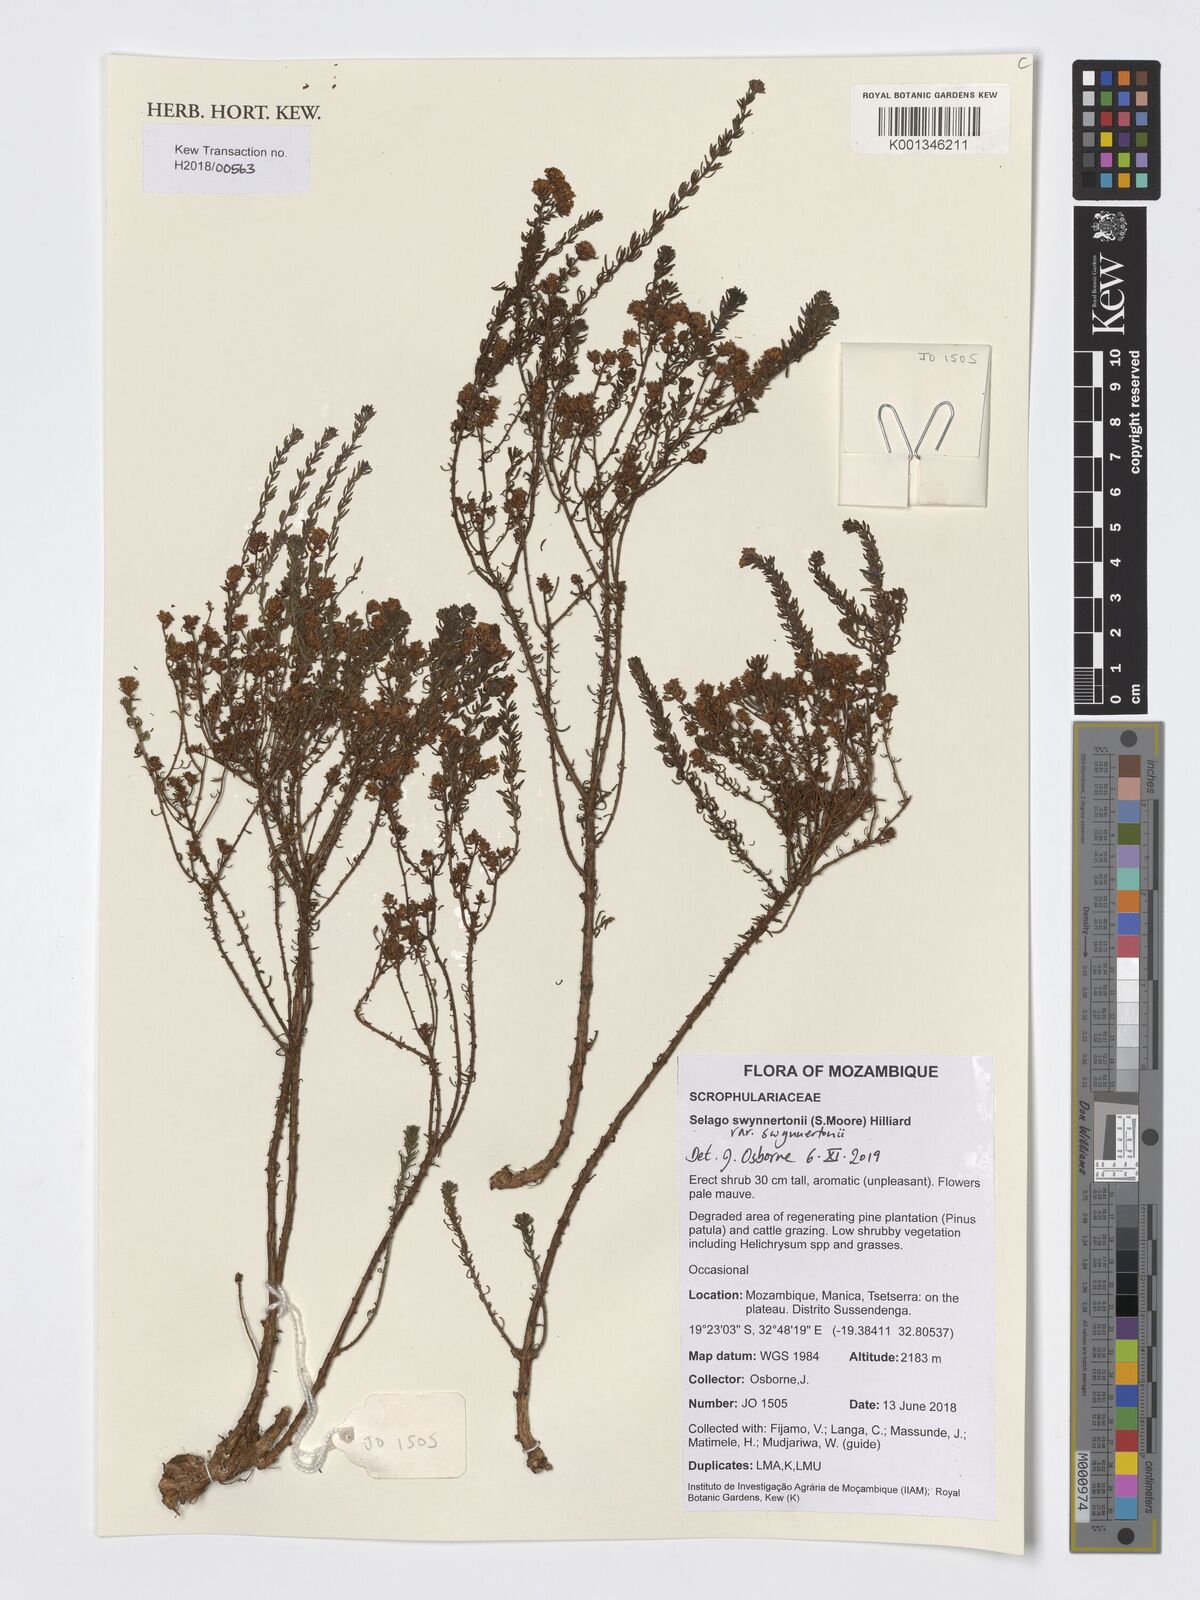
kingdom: Plantae
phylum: Tracheophyta
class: Magnoliopsida
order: Lamiales
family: Scrophulariaceae
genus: Selago
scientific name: Selago swynnertonii
